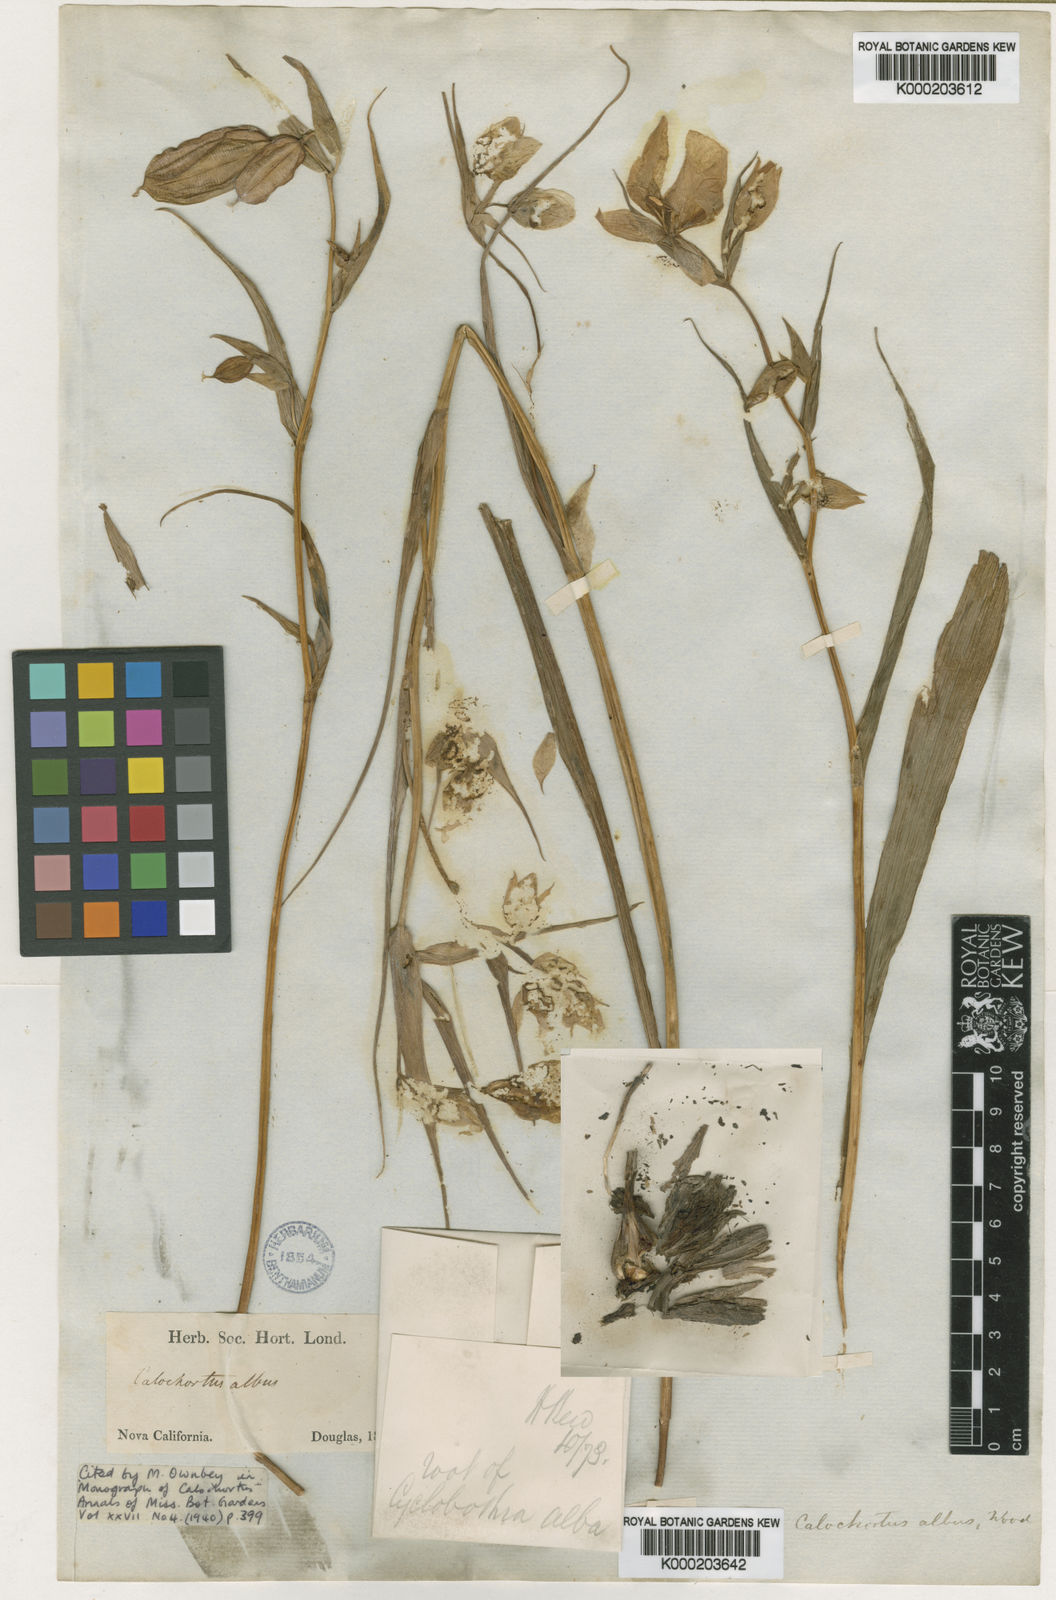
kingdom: Plantae
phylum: Tracheophyta
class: Liliopsida
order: Liliales
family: Liliaceae
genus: Calochortus
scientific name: Calochortus albus
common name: Fairy-lantern
